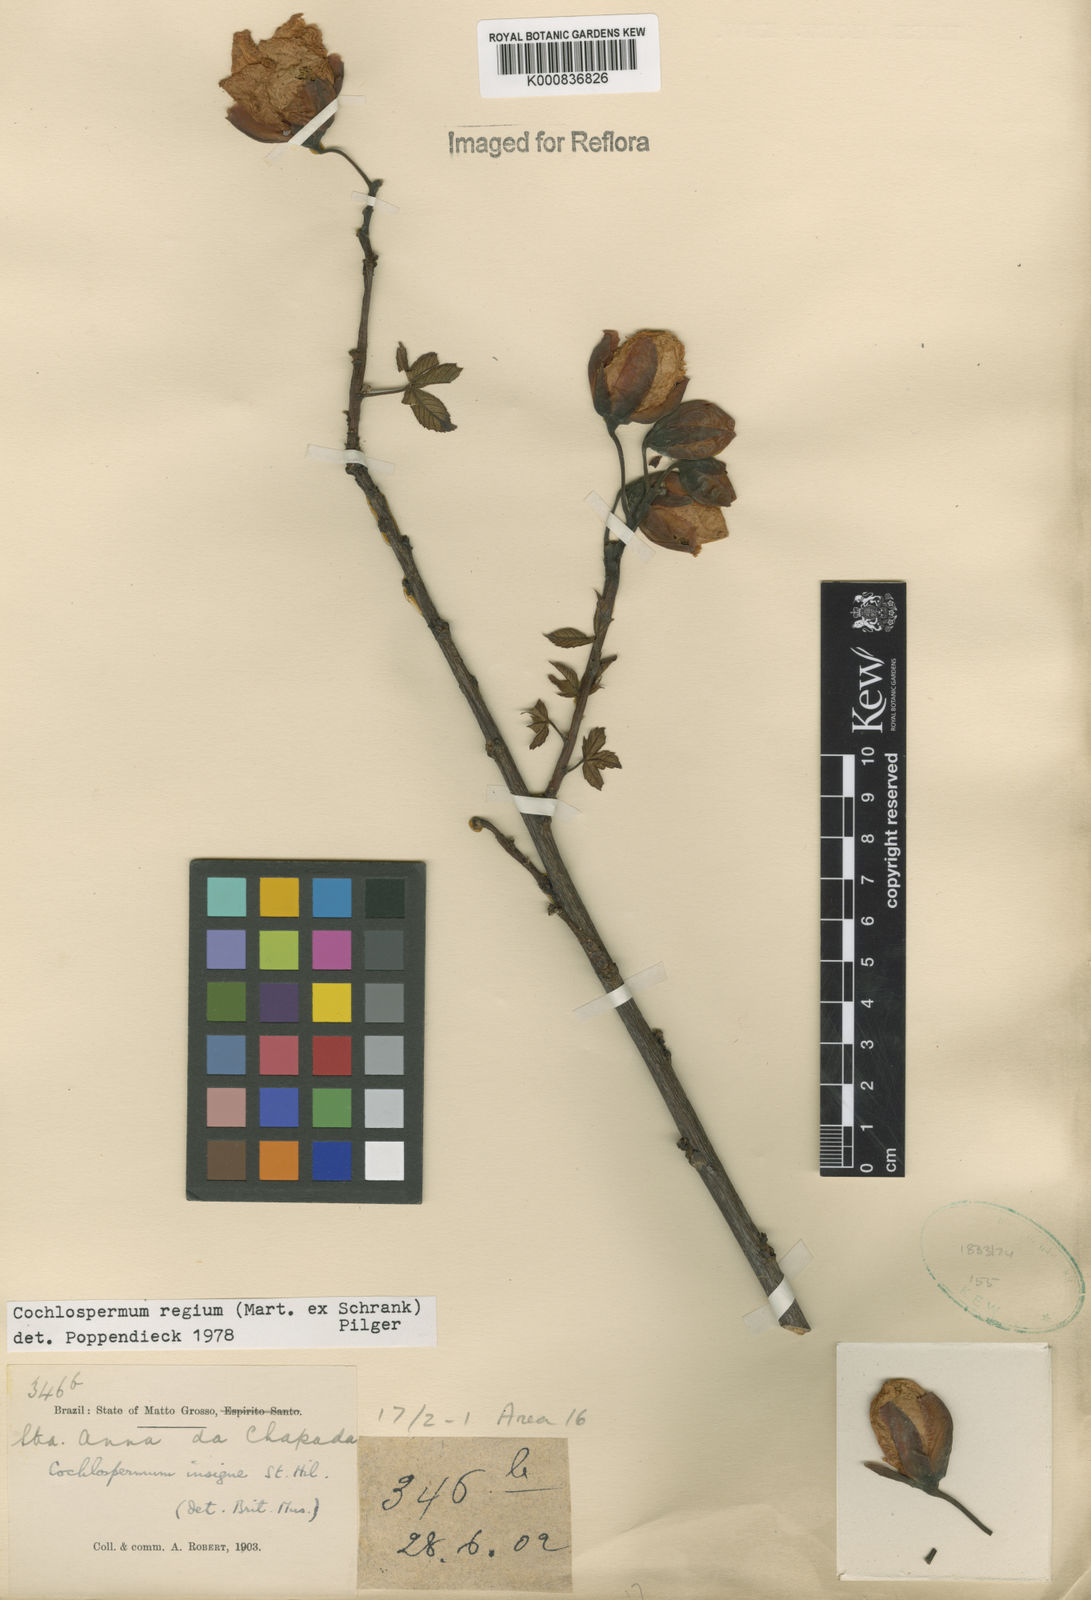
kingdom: Plantae
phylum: Tracheophyta
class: Magnoliopsida
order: Malvales
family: Cochlospermaceae
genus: Cochlospermum
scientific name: Cochlospermum regium
